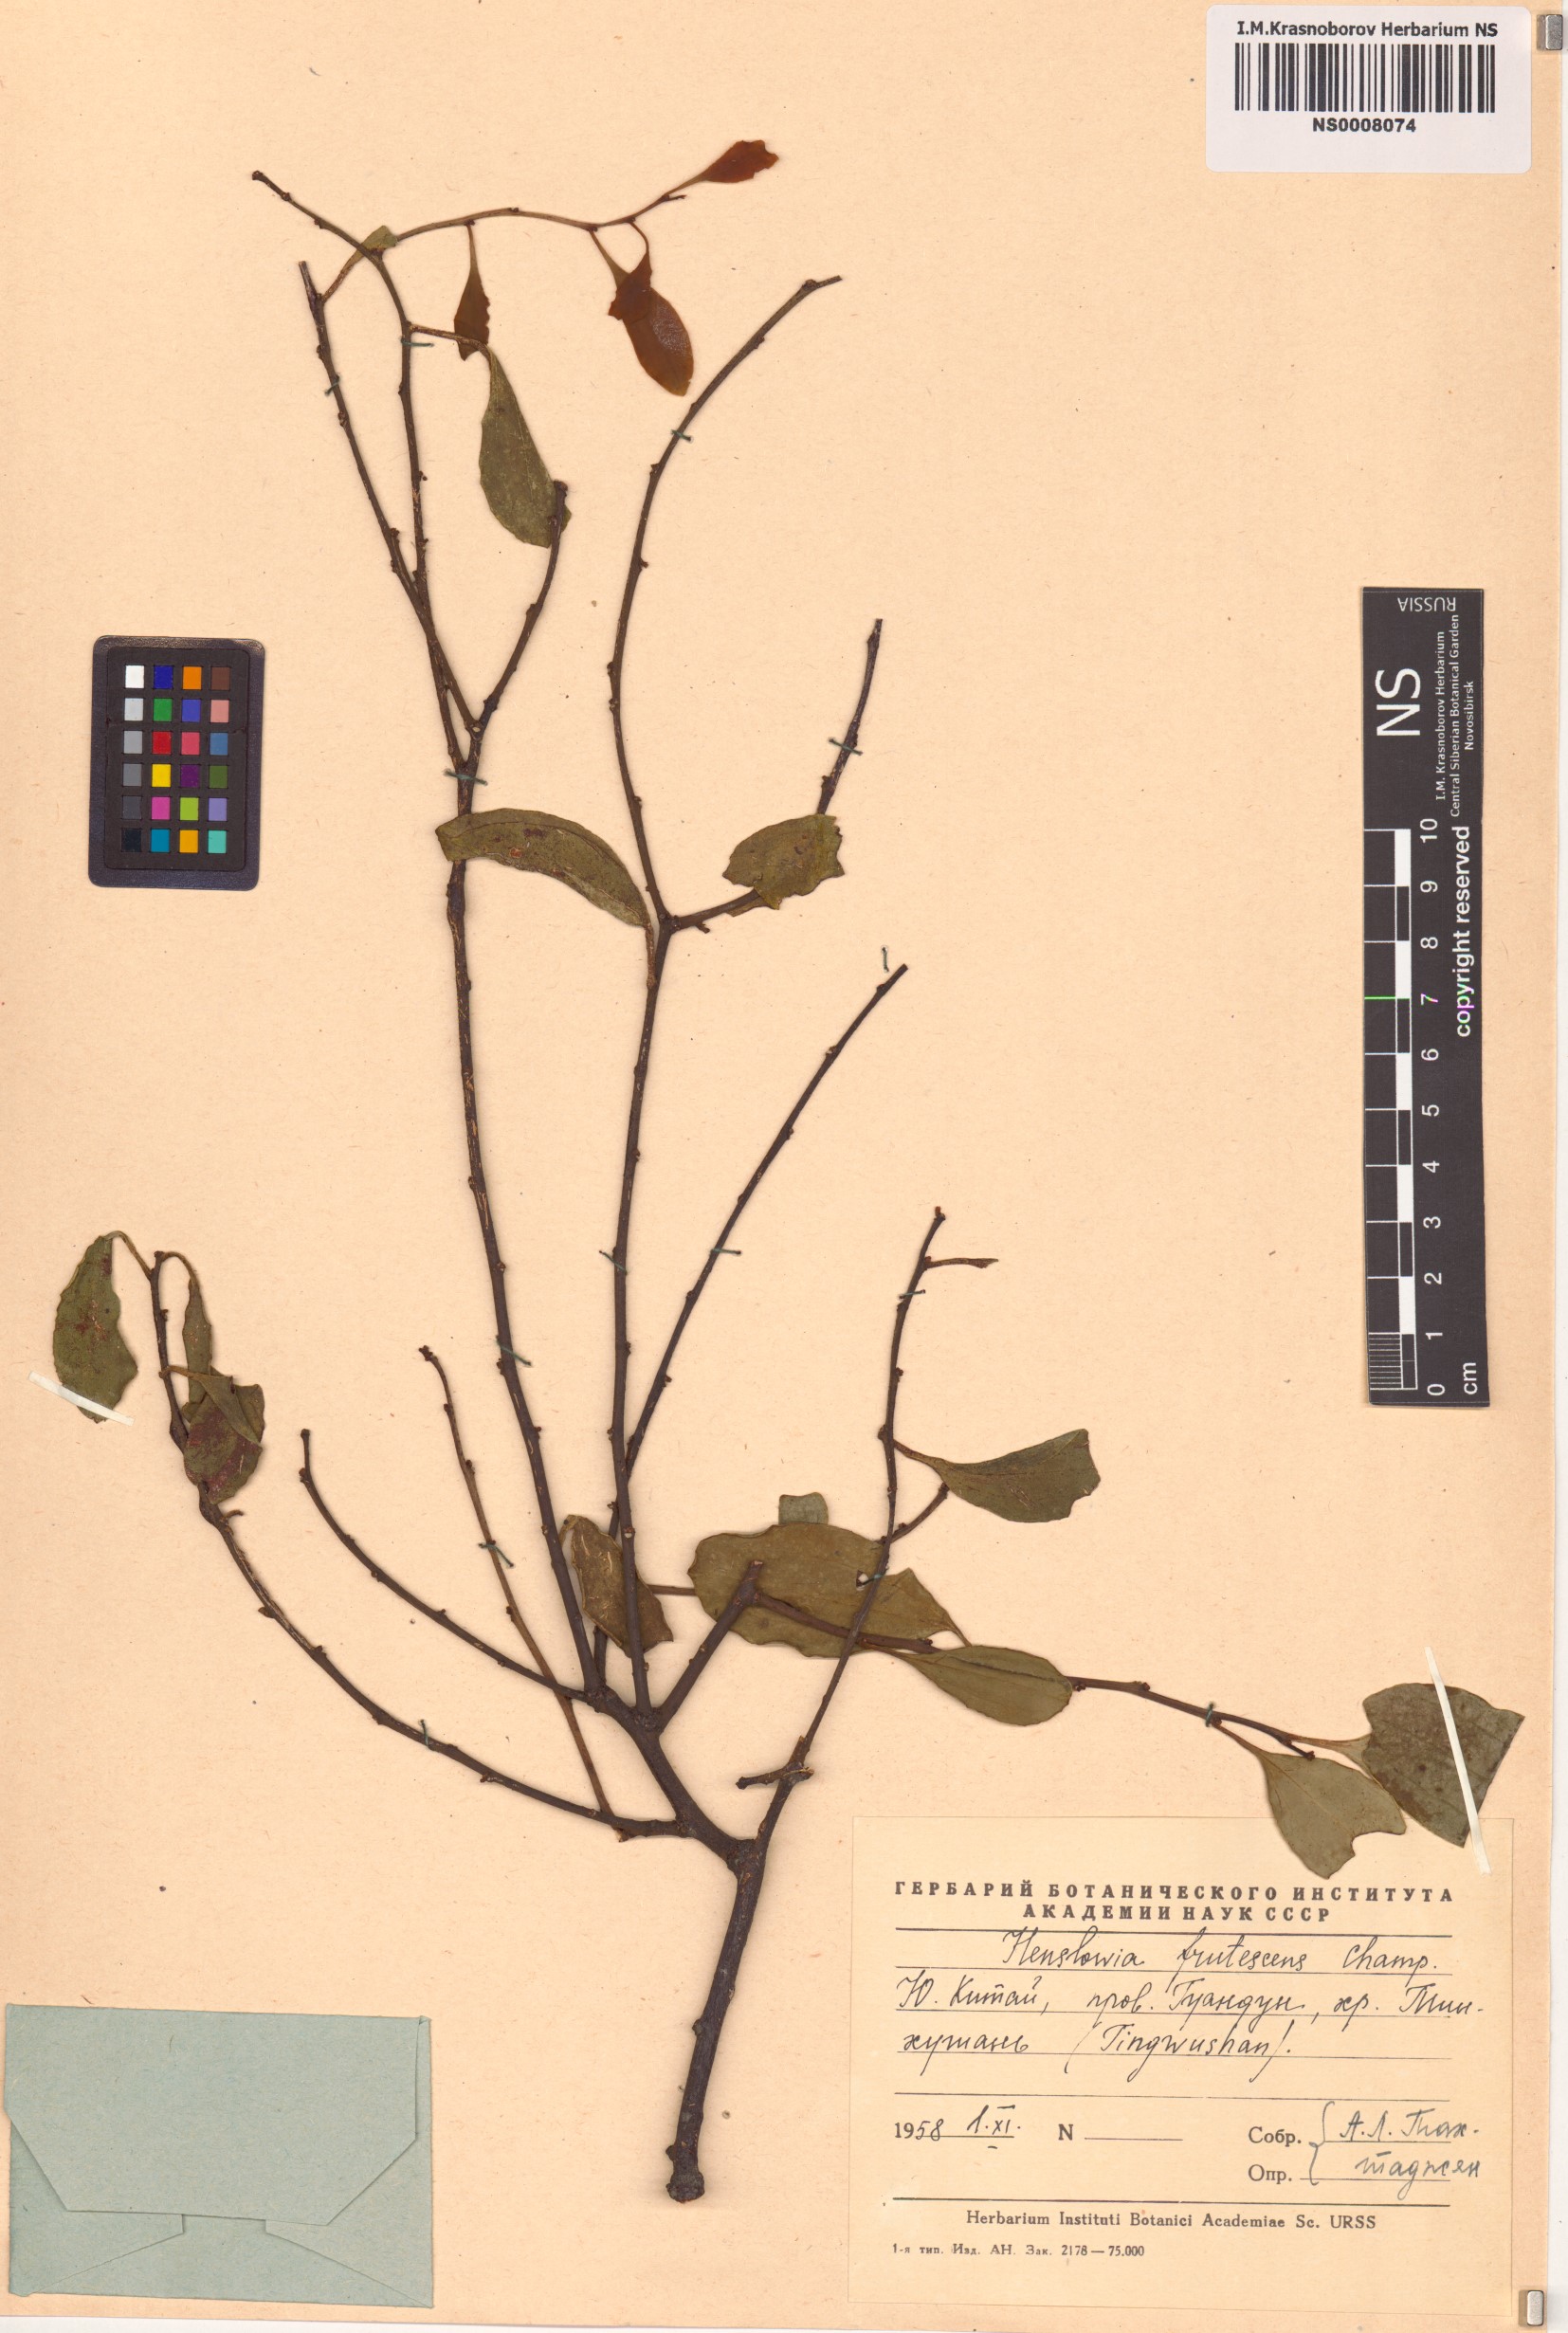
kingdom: Plantae
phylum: Tracheophyta
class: Magnoliopsida
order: Santalales
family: Amphorogynaceae
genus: Dendrotrophe
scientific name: Dendrotrophe frutescens
